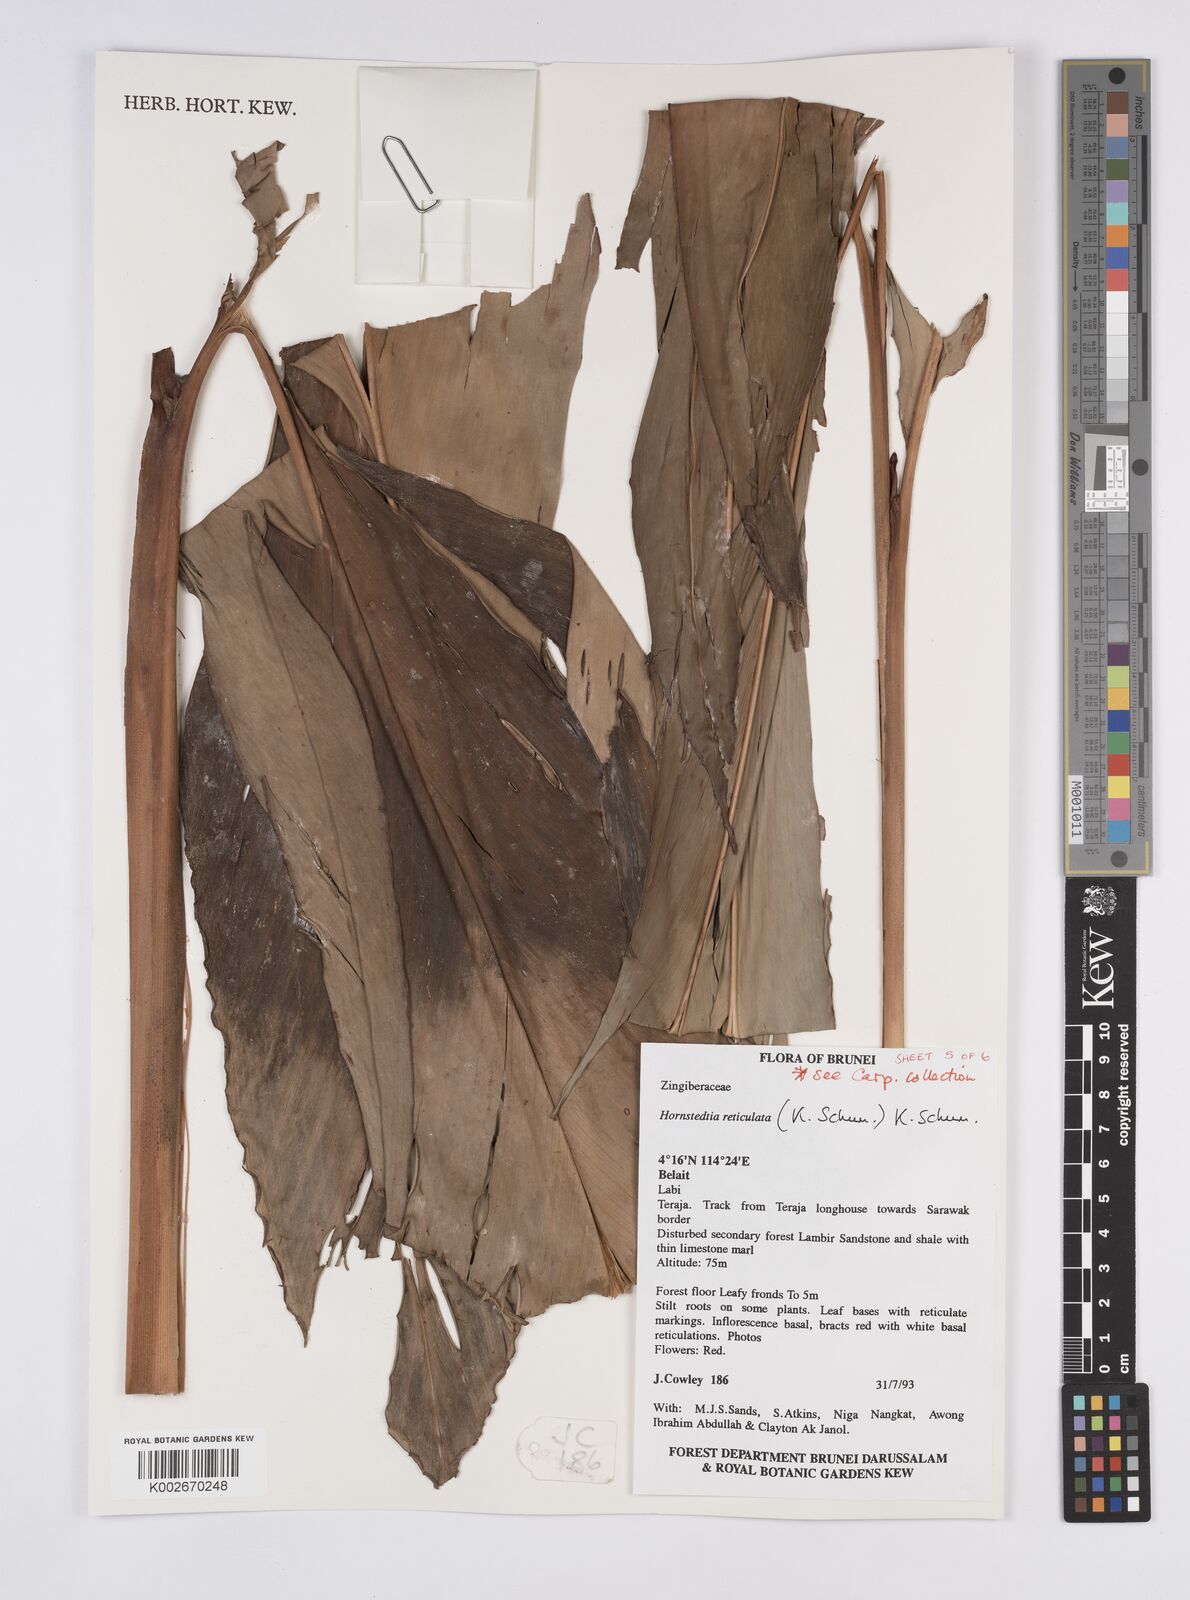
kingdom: Plantae
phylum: Tracheophyta
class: Liliopsida
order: Zingiberales
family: Zingiberaceae
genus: Hornstedtia
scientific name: Hornstedtia reticulata
